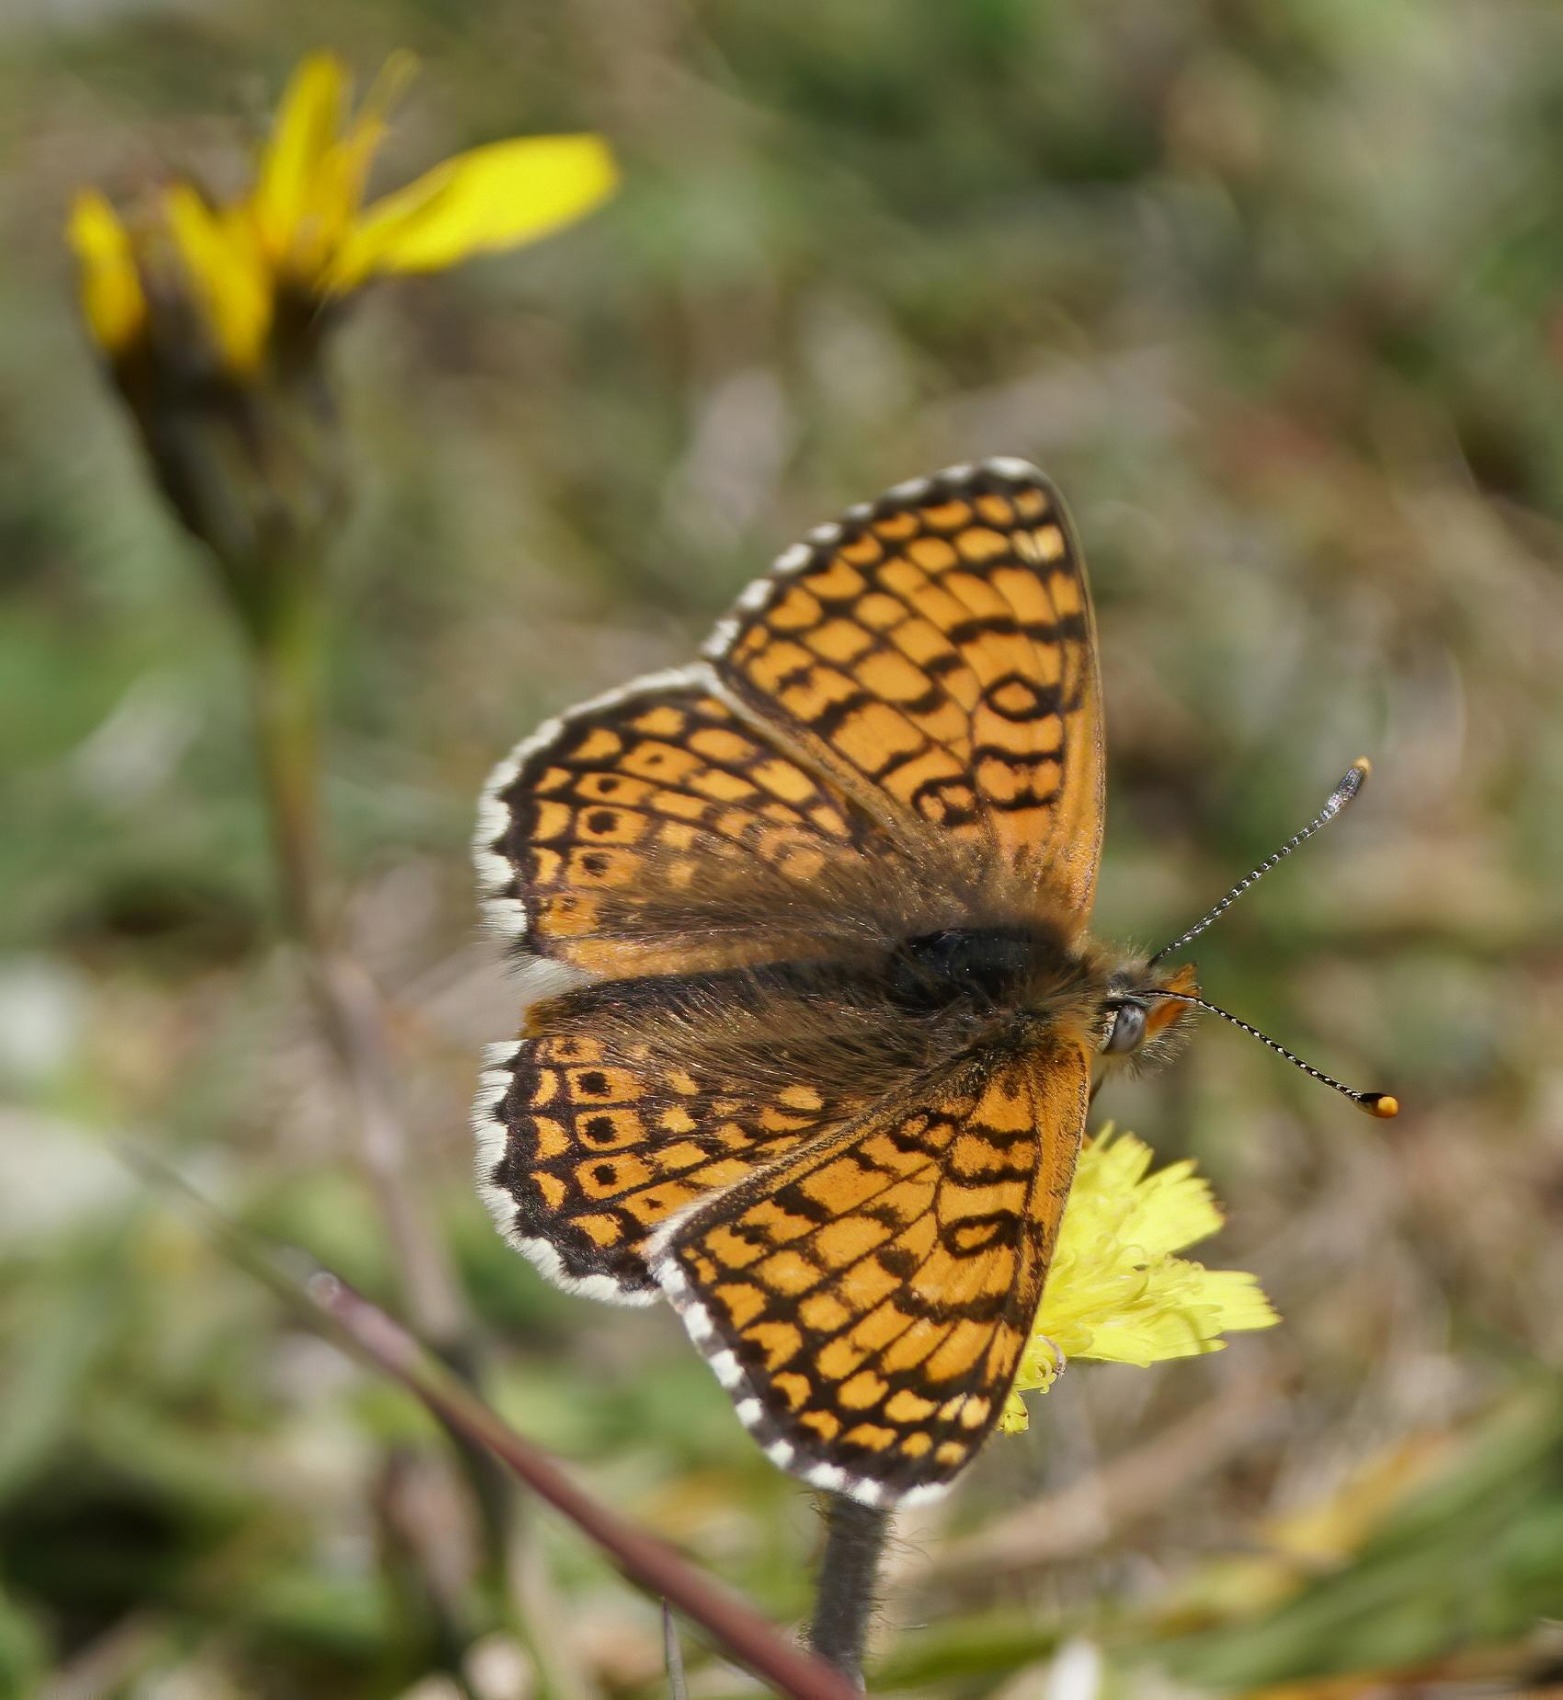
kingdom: Animalia
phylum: Arthropoda
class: Insecta
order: Lepidoptera
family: Nymphalidae
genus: Melitaea
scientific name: Melitaea cinxia
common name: Okkergul pletvinge
